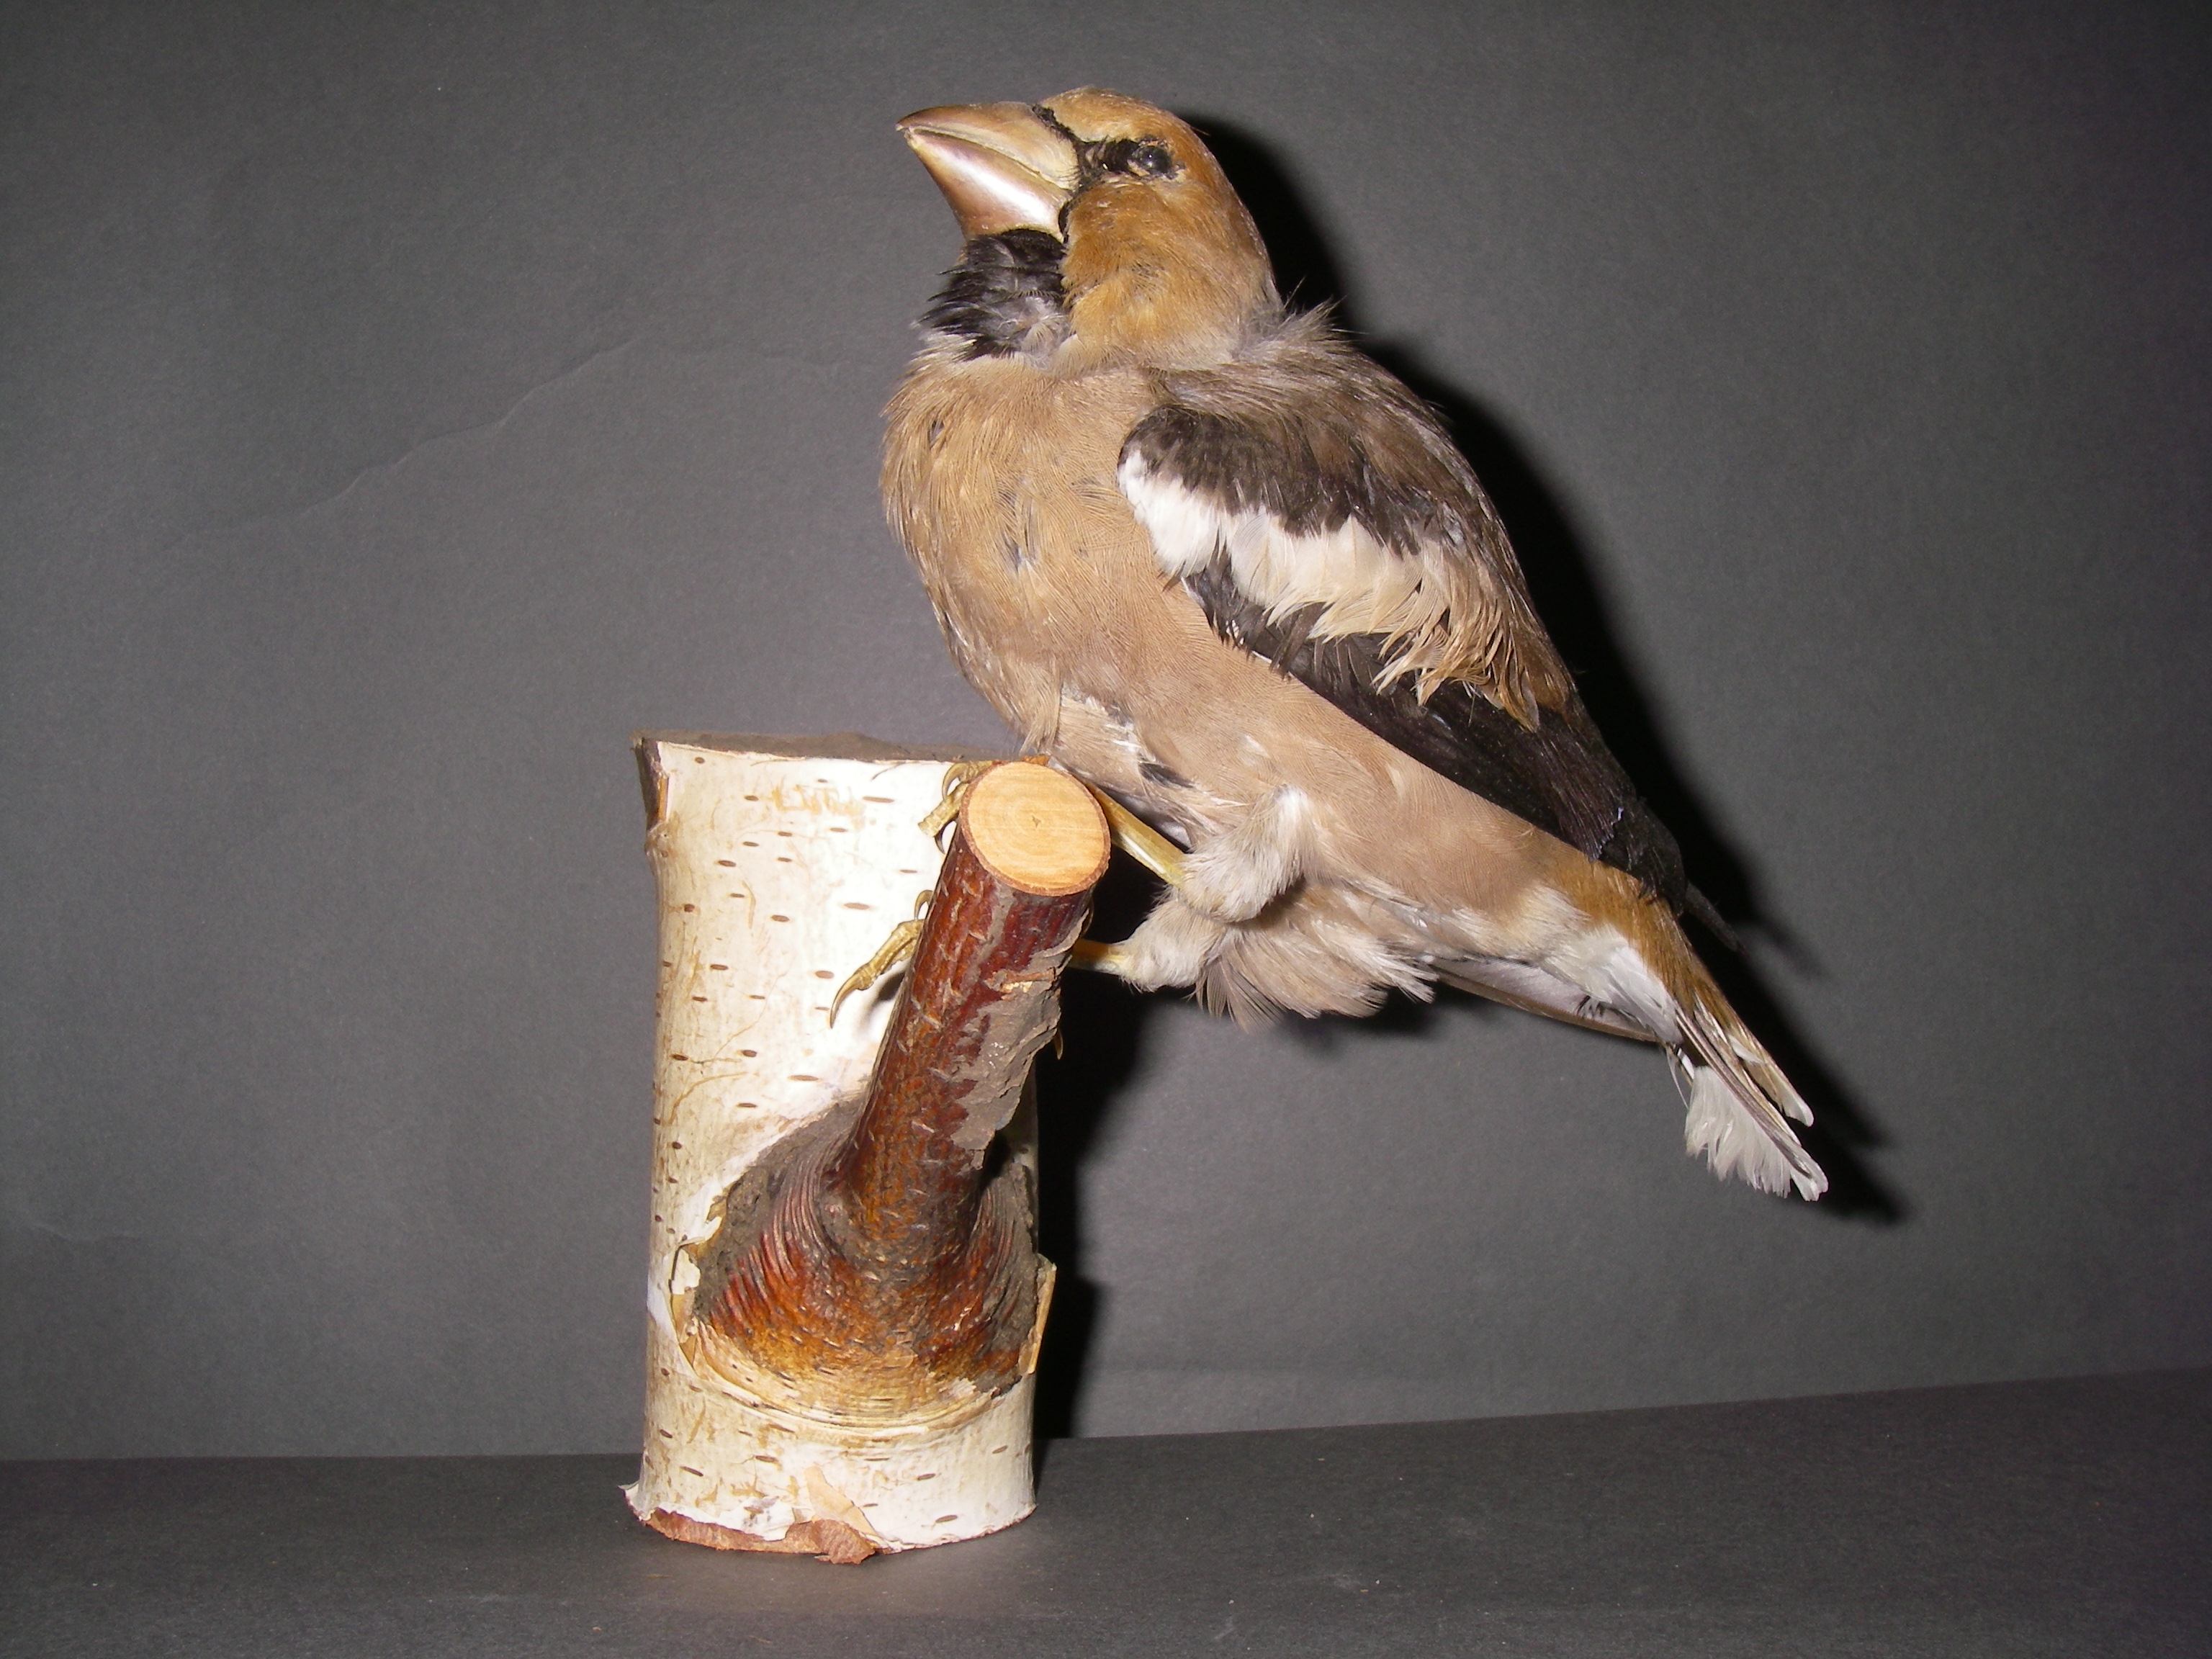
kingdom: Animalia
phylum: Chordata
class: Aves
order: Passeriformes
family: Fringillidae
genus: Coccothraustes
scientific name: Coccothraustes coccothraustes
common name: Hawfinch
